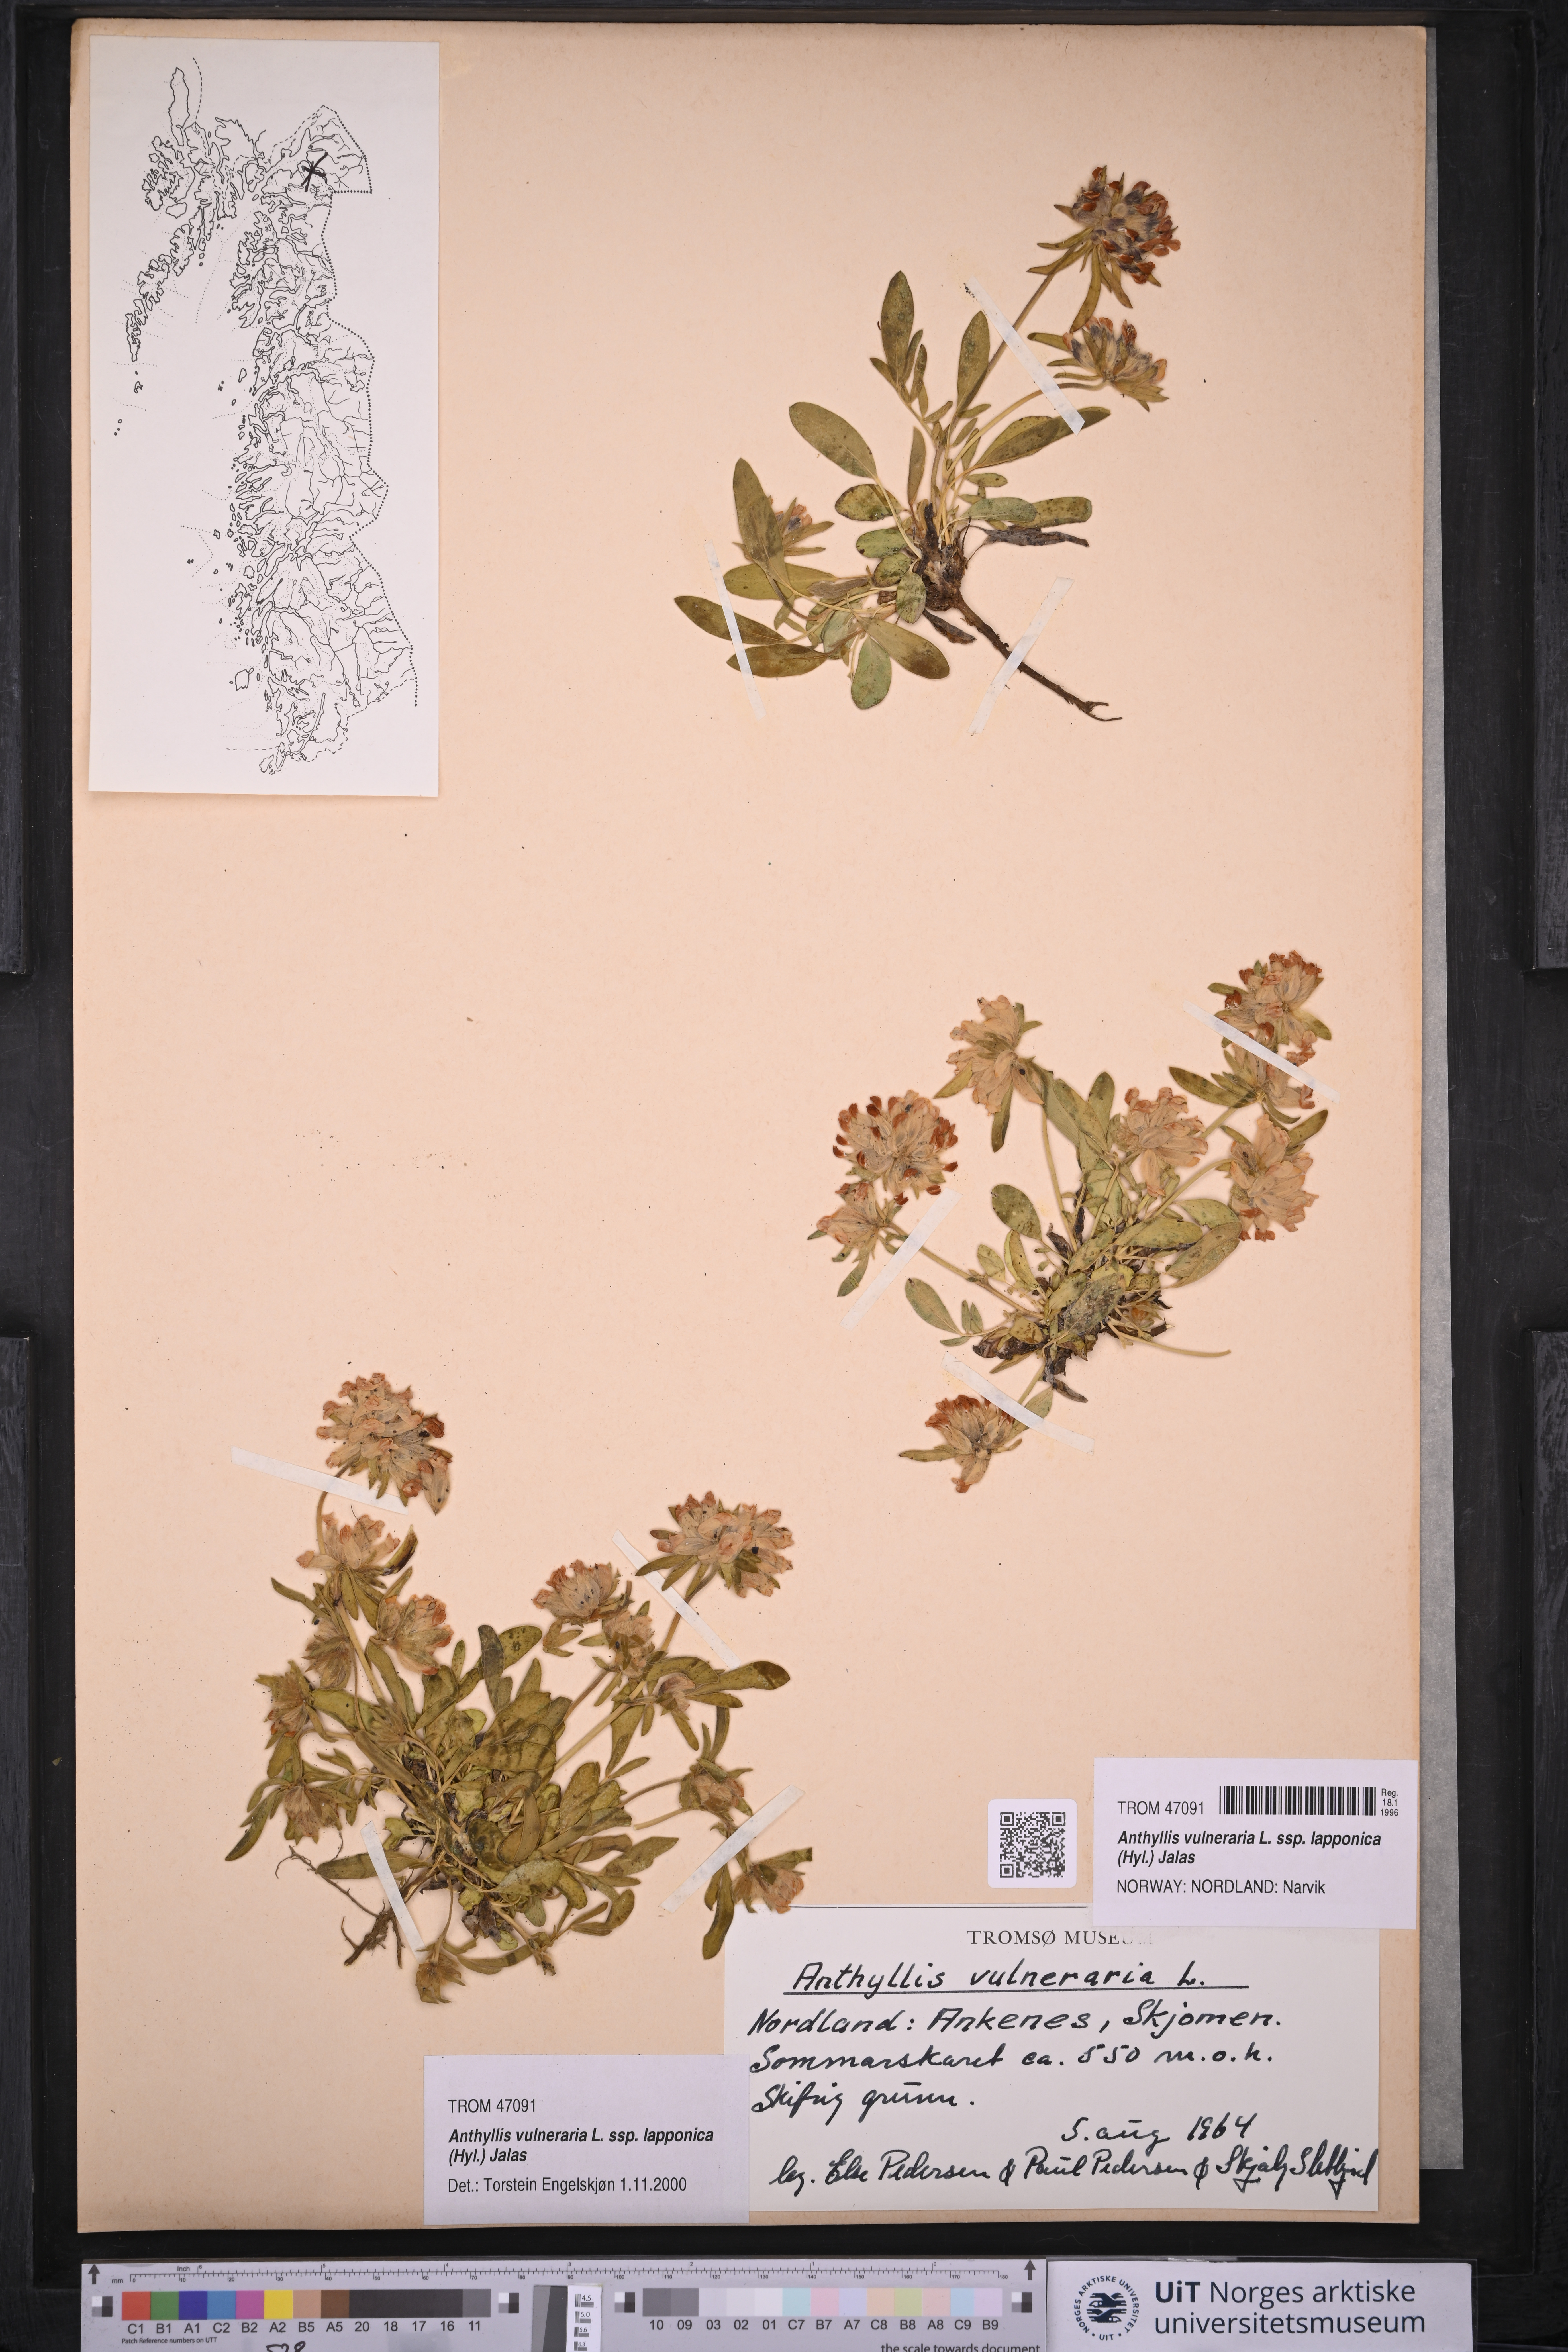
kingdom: Plantae
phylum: Tracheophyta
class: Magnoliopsida
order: Fabales
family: Fabaceae
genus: Anthyllis
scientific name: Anthyllis vulneraria
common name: Kidney vetch
